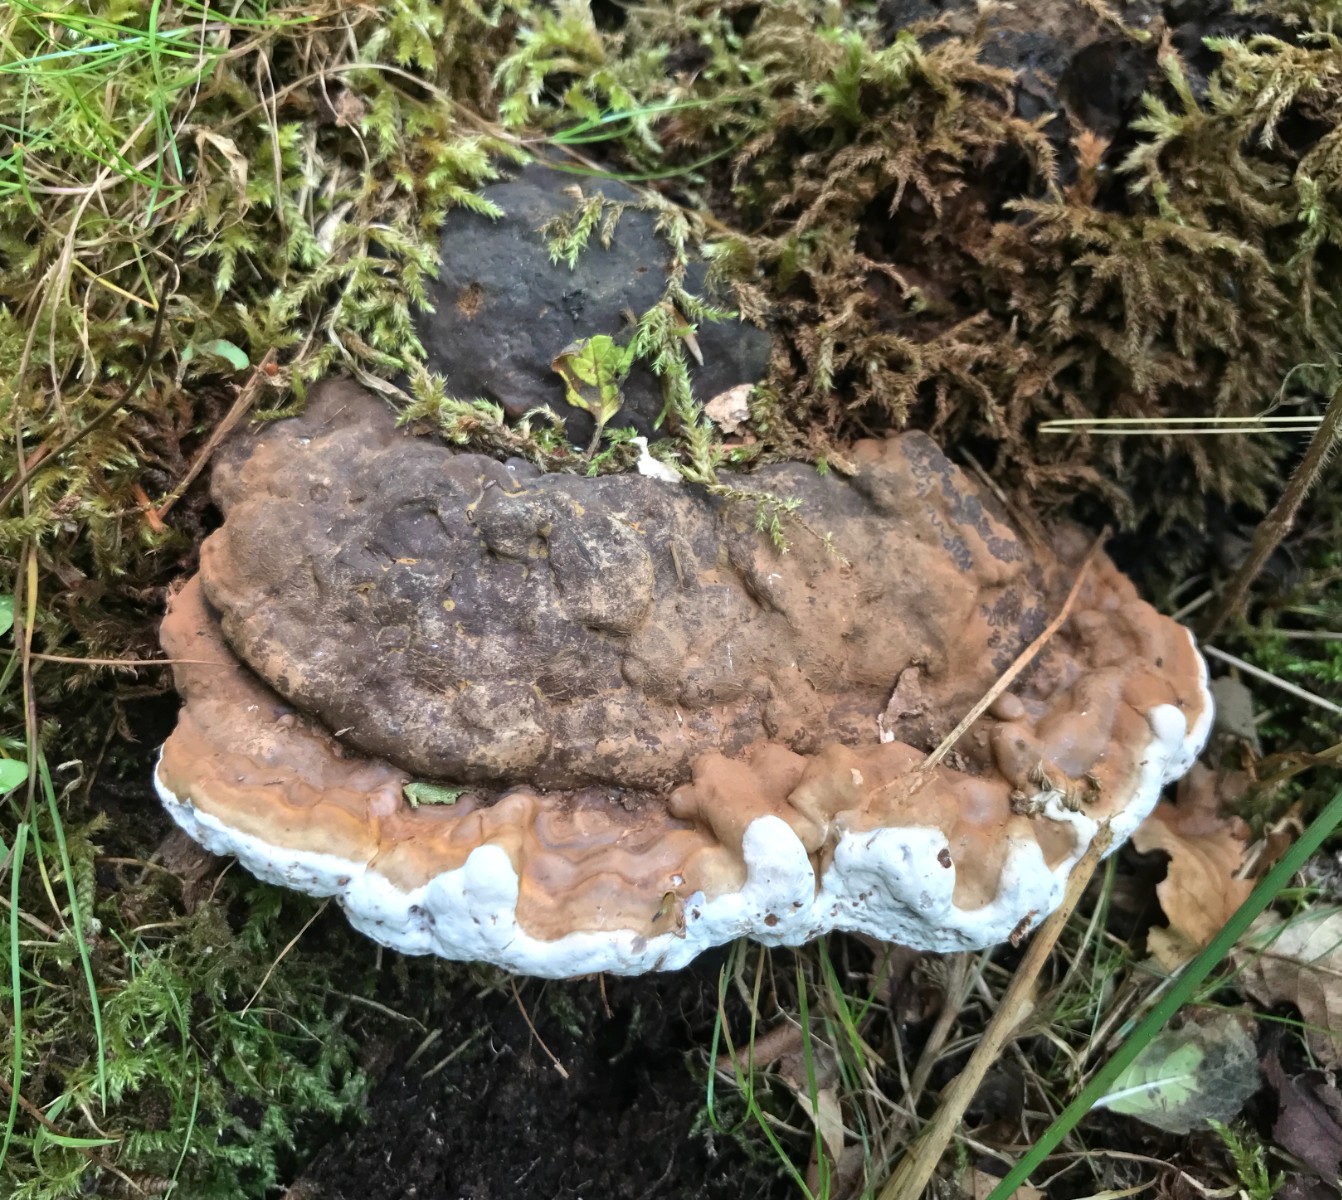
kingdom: Fungi
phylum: Basidiomycota
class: Agaricomycetes
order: Polyporales
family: Polyporaceae
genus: Ganoderma
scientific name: Ganoderma applanatum
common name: flad lakporesvamp
